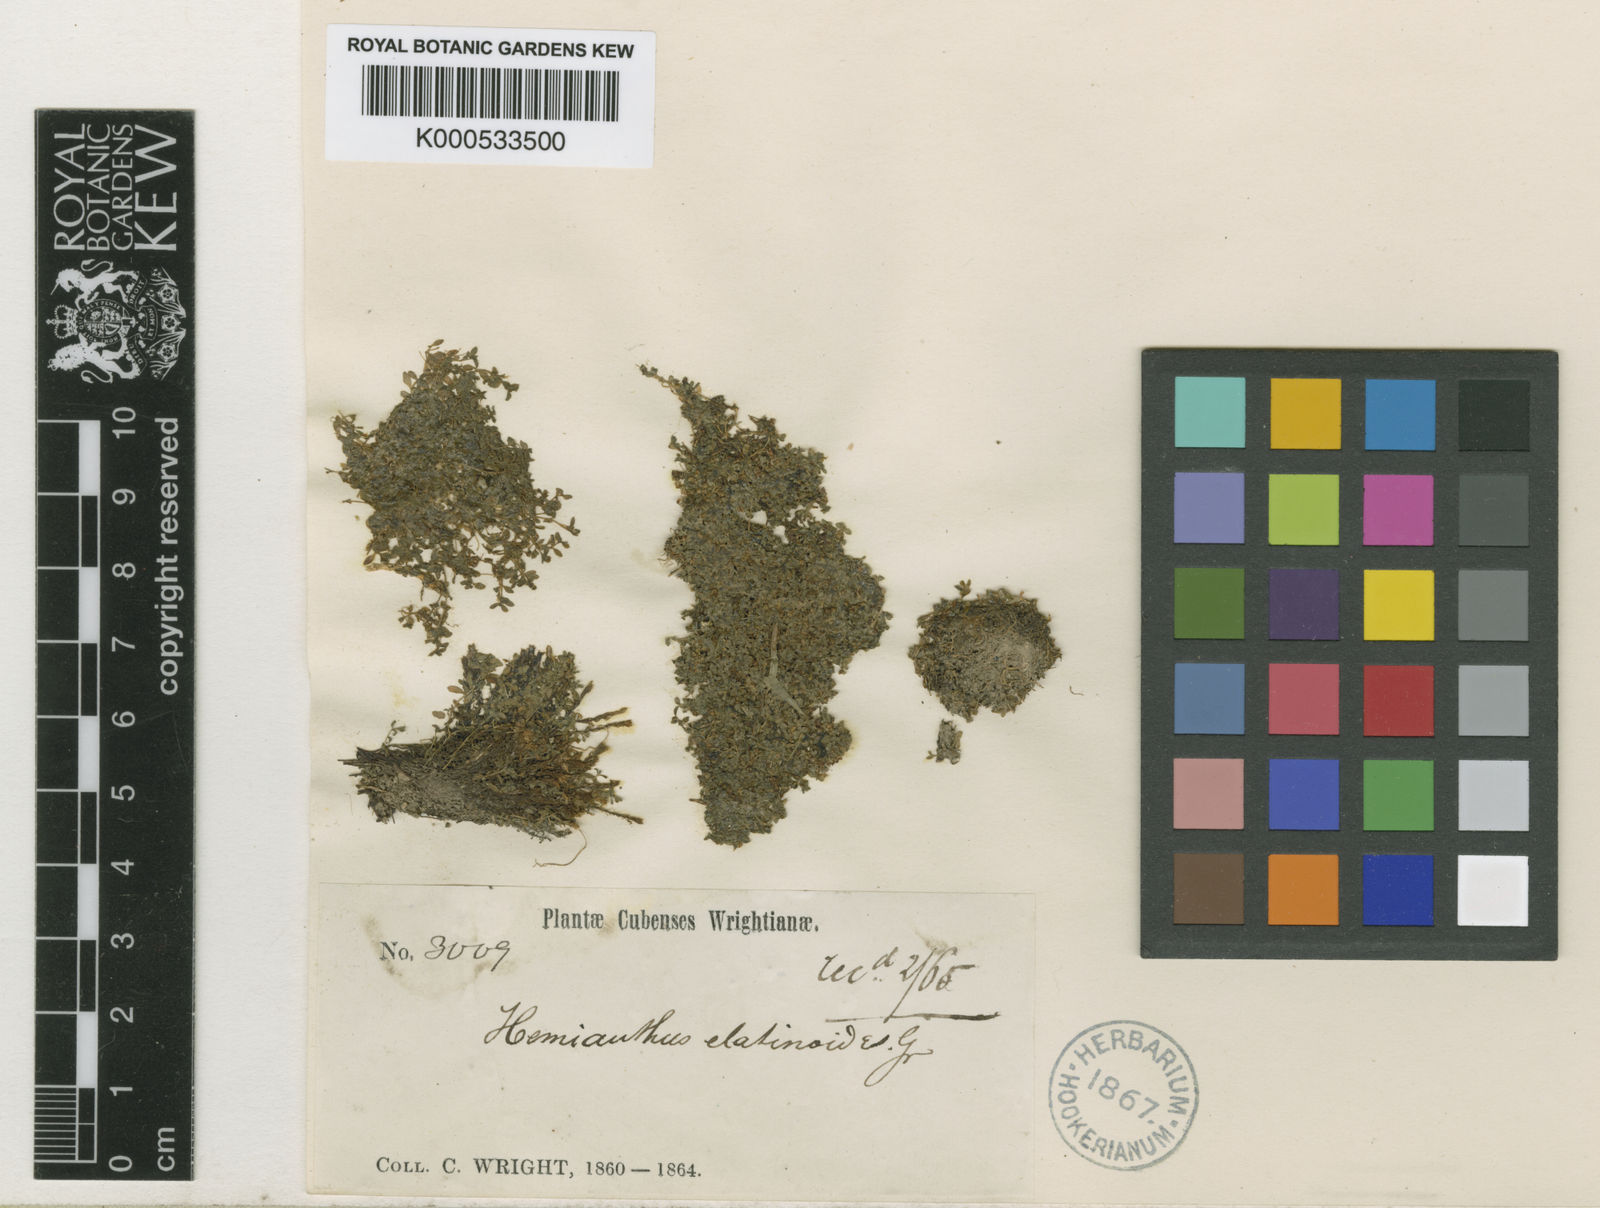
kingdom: Plantae
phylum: Tracheophyta
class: Magnoliopsida
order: Lamiales
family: Linderniaceae
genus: Micranthemum
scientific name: Micranthemum callitrichoides
